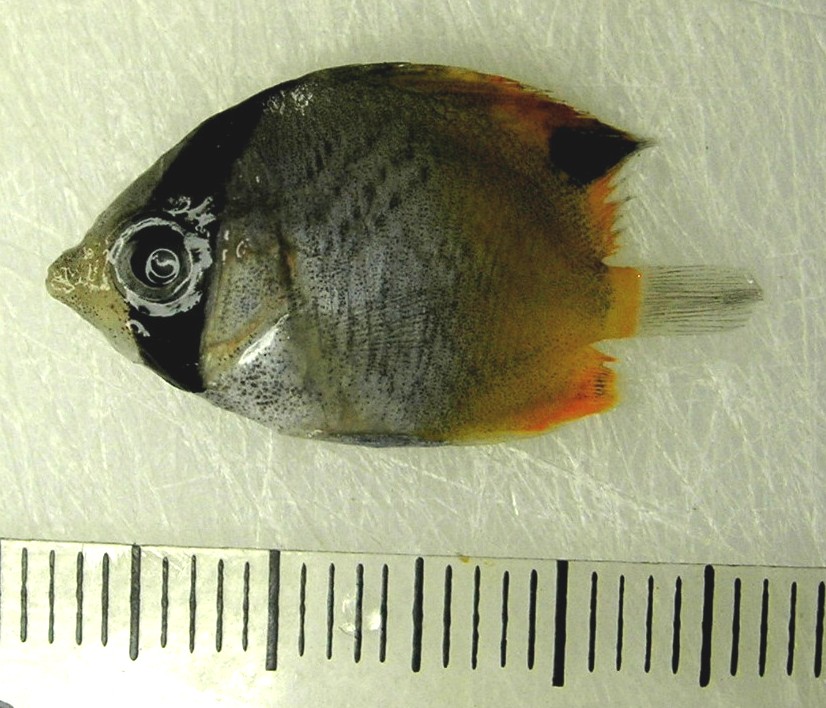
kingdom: Animalia
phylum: Chordata
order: Perciformes
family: Chaetodontidae
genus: Chaetodon
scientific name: Chaetodon auriga
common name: Threadfin butterflyfish
